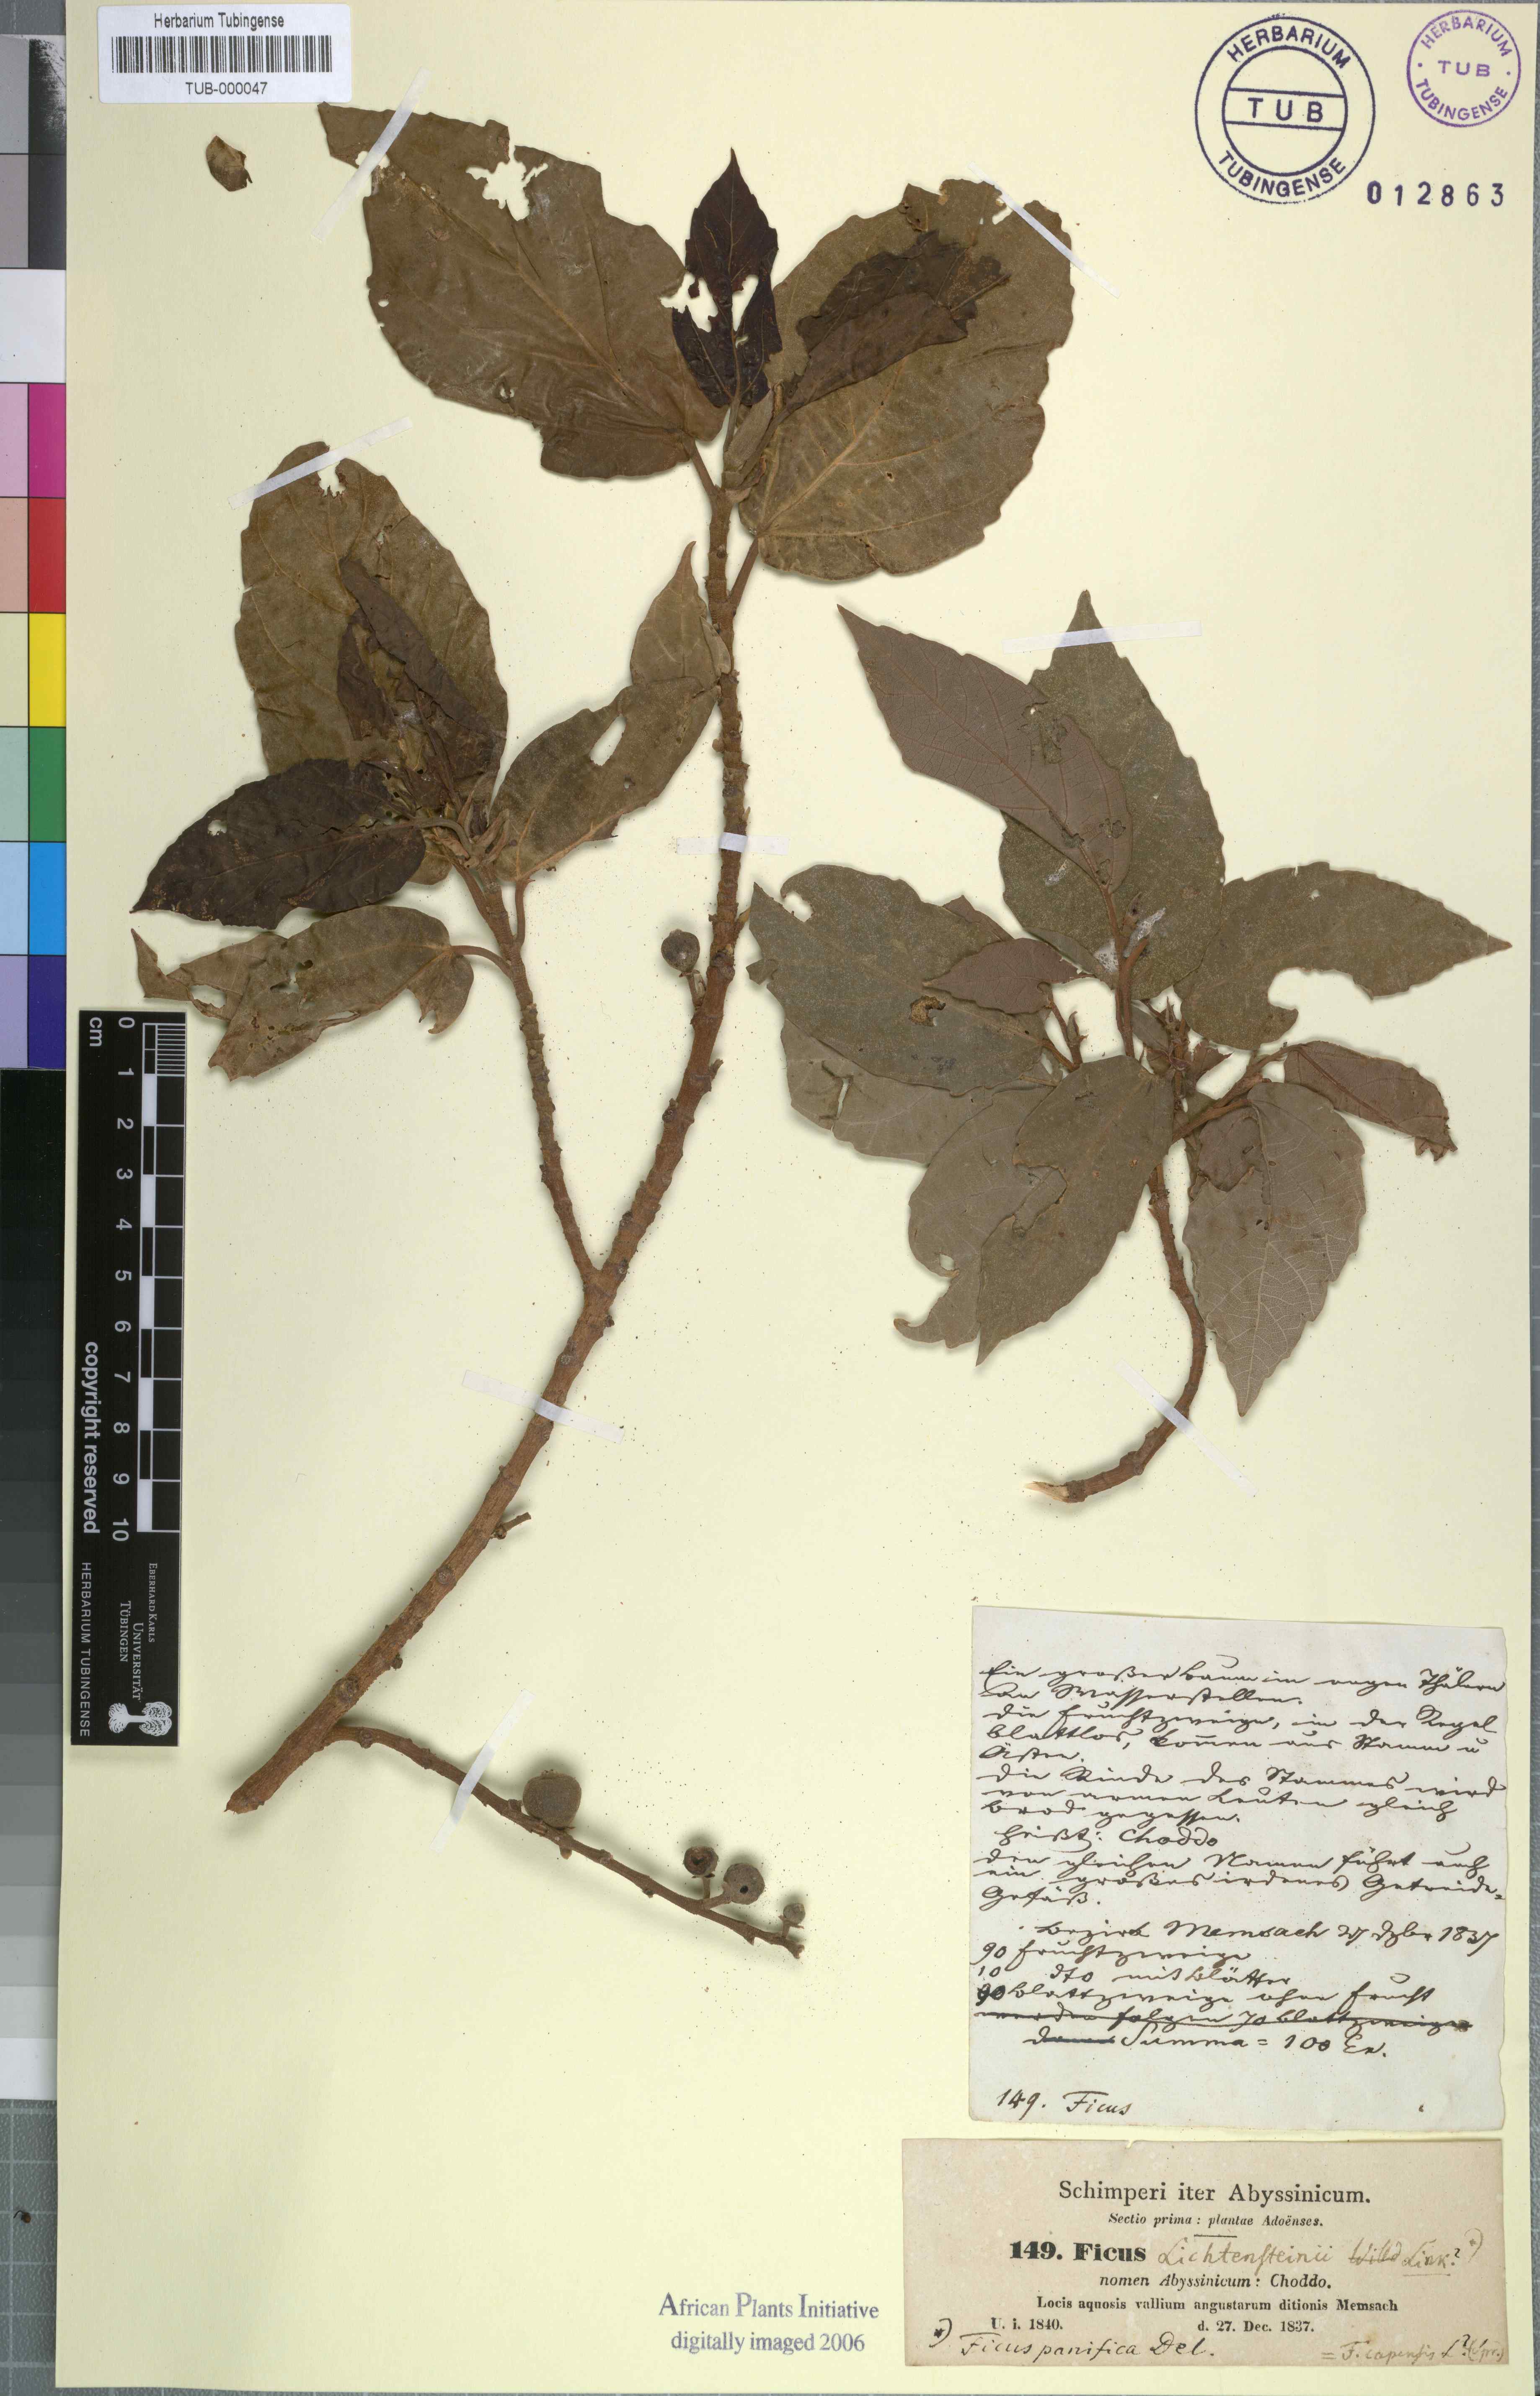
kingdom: Plantae
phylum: Tracheophyta
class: Magnoliopsida
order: Rosales
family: Moraceae
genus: Ficus
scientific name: Ficus sur
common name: Cape fig
